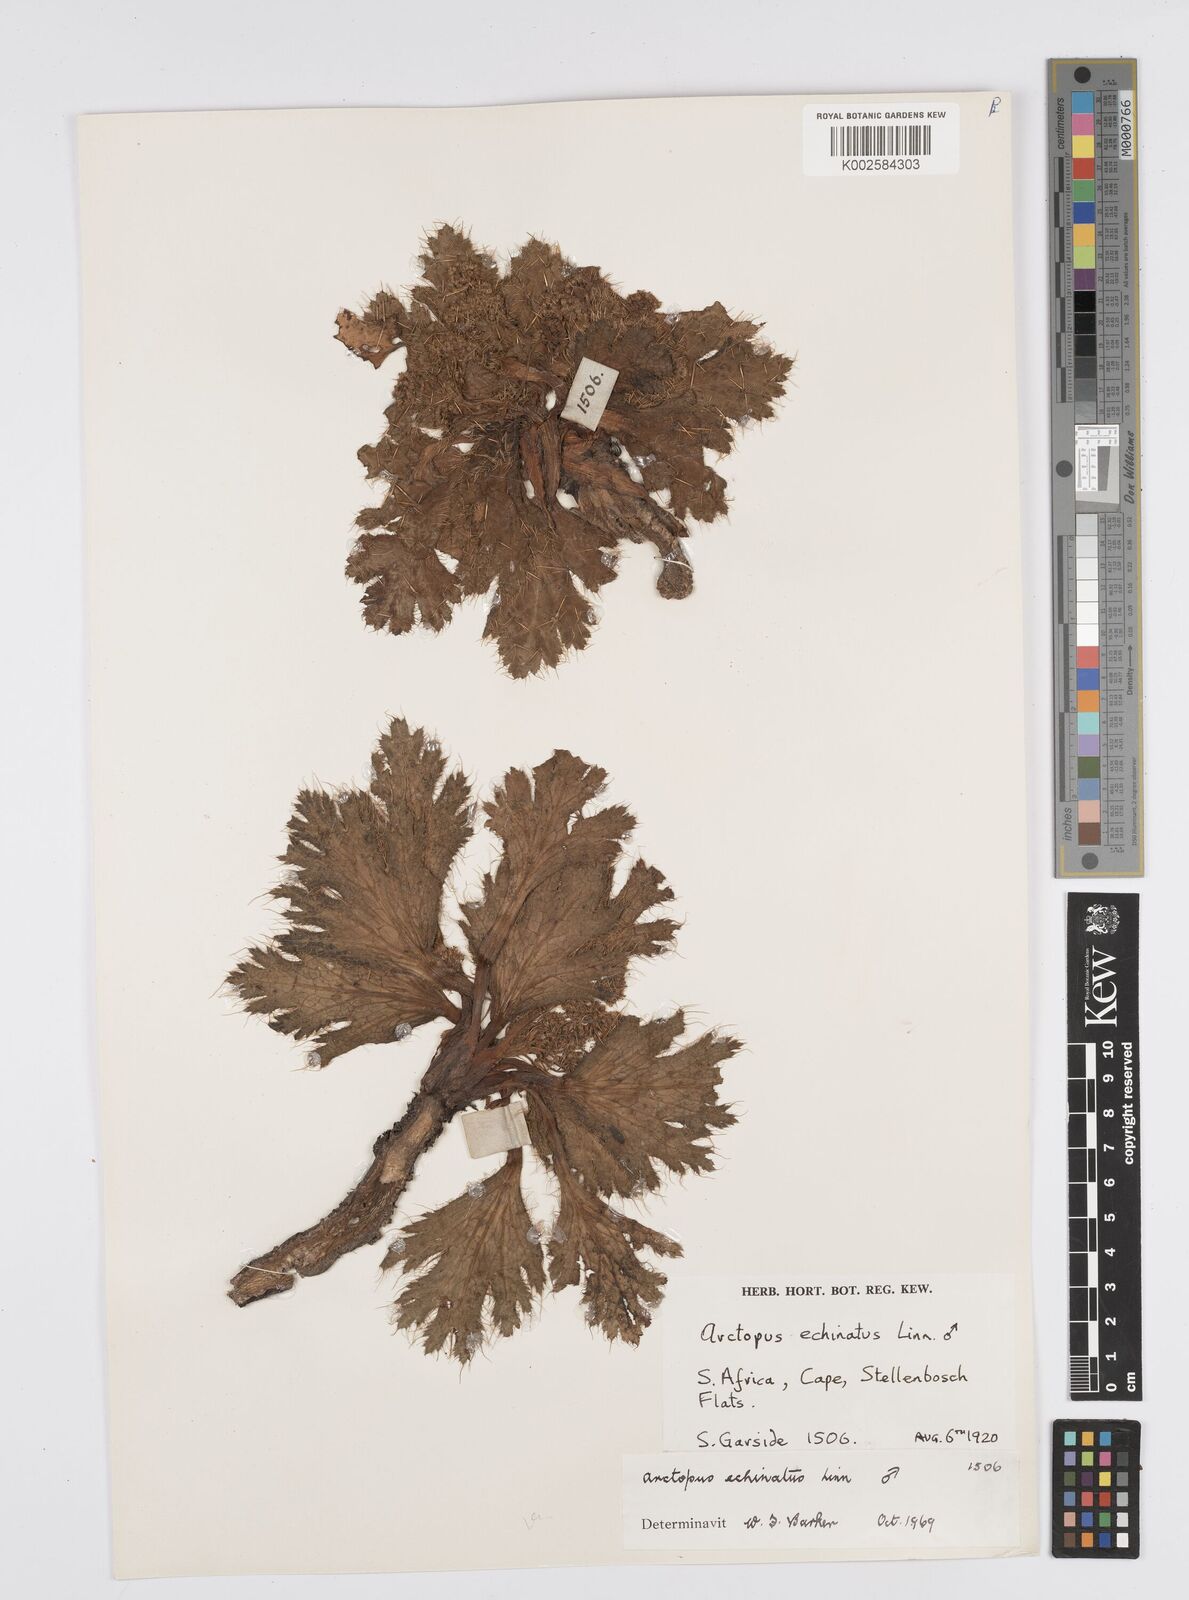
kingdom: Plantae
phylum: Tracheophyta
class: Magnoliopsida
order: Apiales
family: Apiaceae
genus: Arctopus
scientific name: Arctopus echinatus
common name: Platdoring
